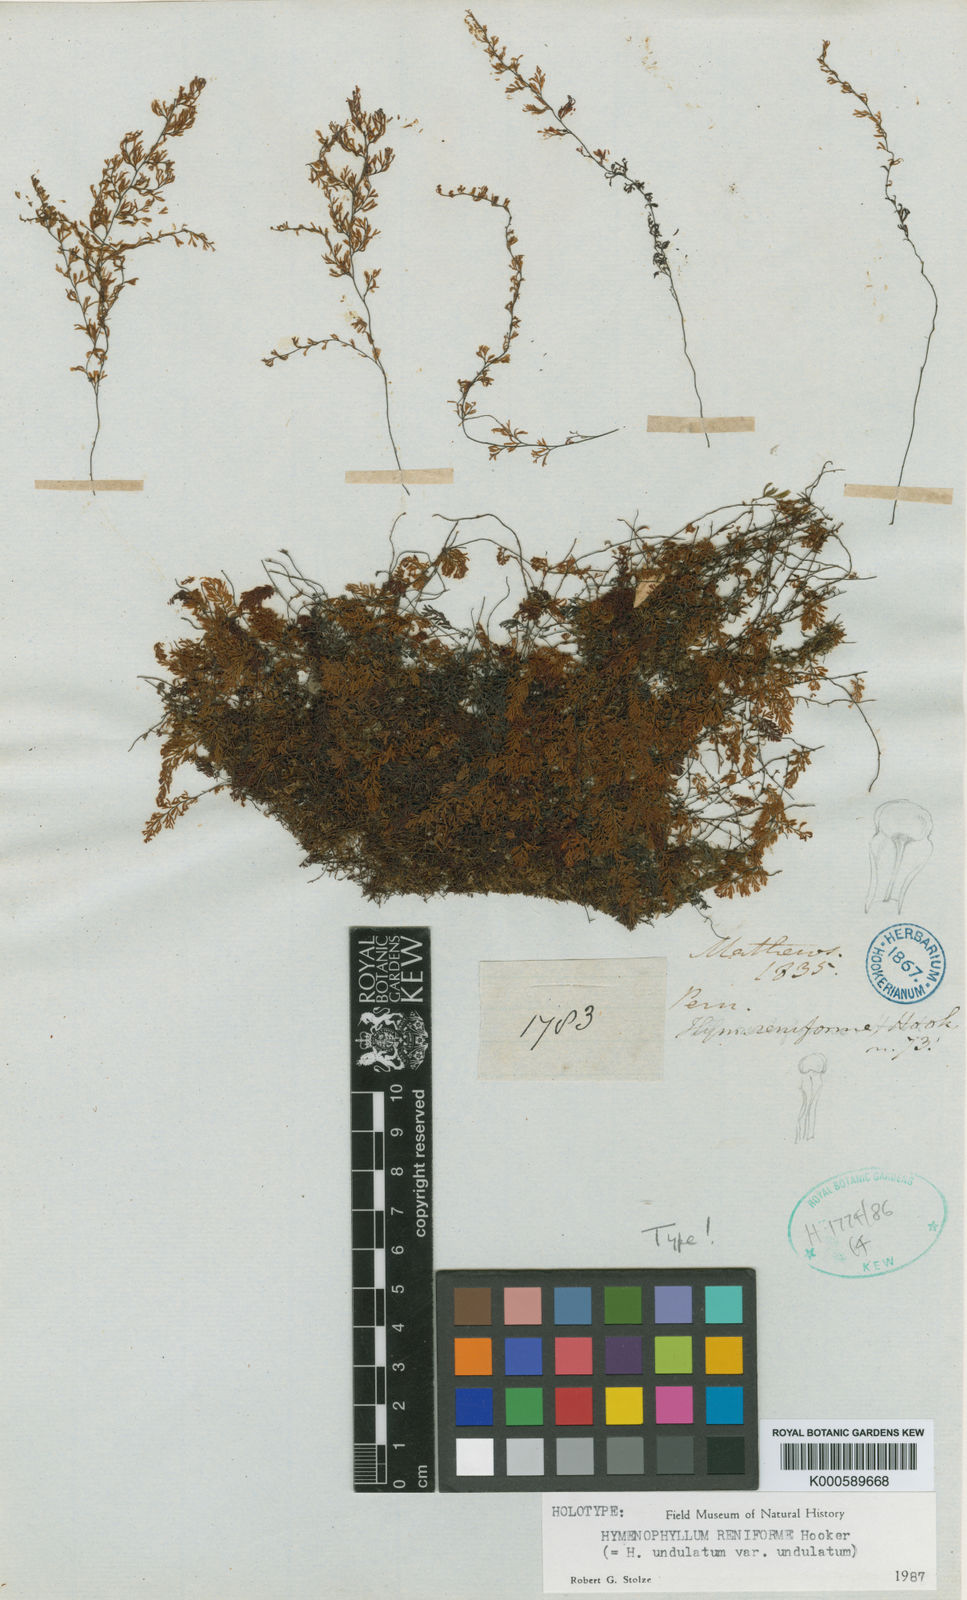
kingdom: Plantae
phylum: Tracheophyta
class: Polypodiopsida
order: Hymenophyllales
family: Hymenophyllaceae
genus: Hymenophyllum
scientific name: Hymenophyllum undulatum
